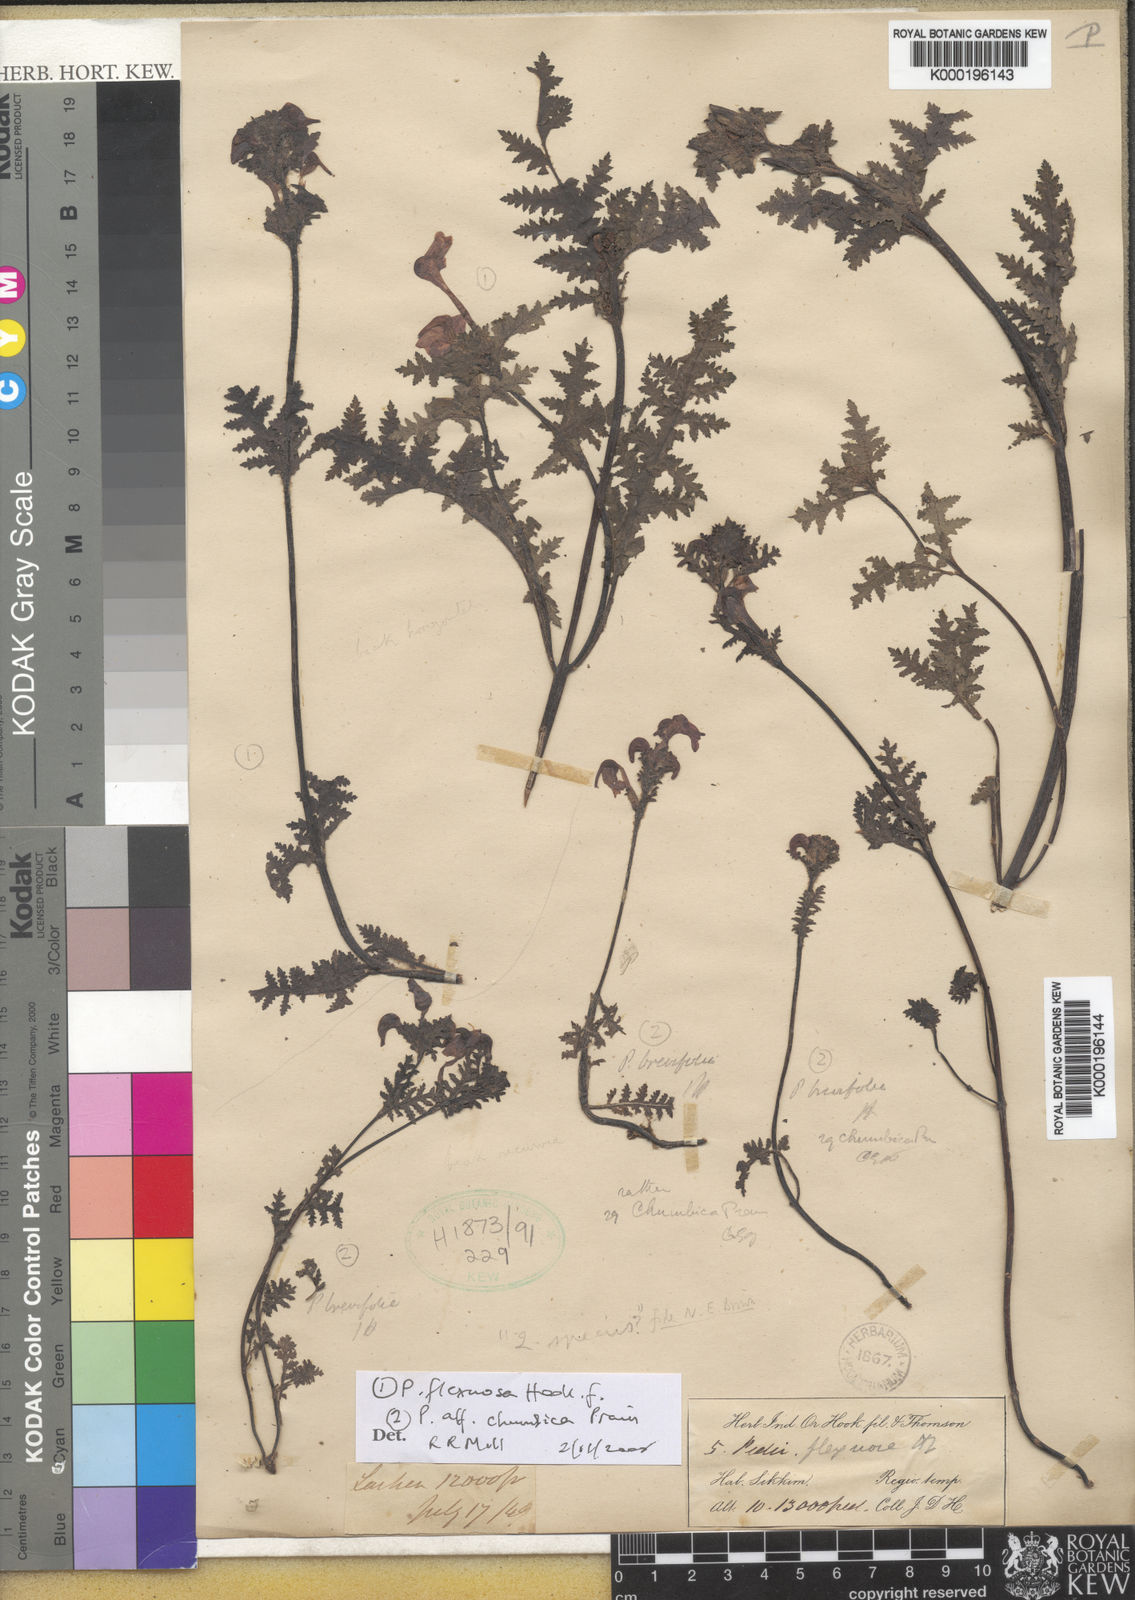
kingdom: Plantae
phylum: Tracheophyta
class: Magnoliopsida
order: Lamiales
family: Orobanchaceae
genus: Pedicularis
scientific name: Pedicularis flexuosa
